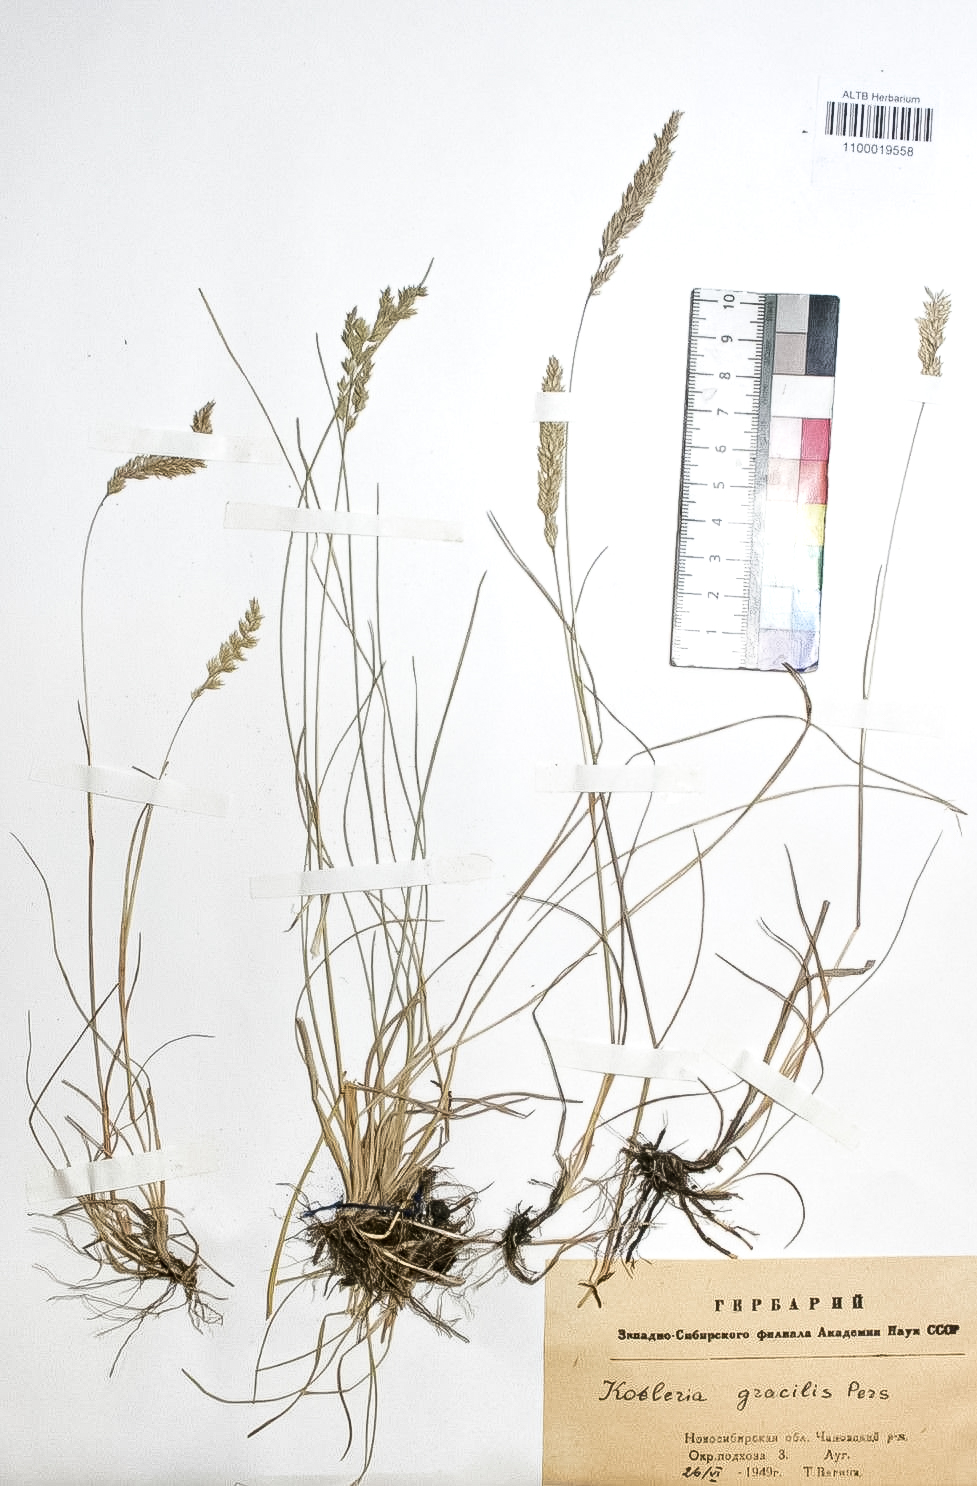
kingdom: Plantae
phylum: Tracheophyta
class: Liliopsida
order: Poales
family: Poaceae
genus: Koeleria
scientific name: Koeleria macrantha
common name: Crested hair-grass
